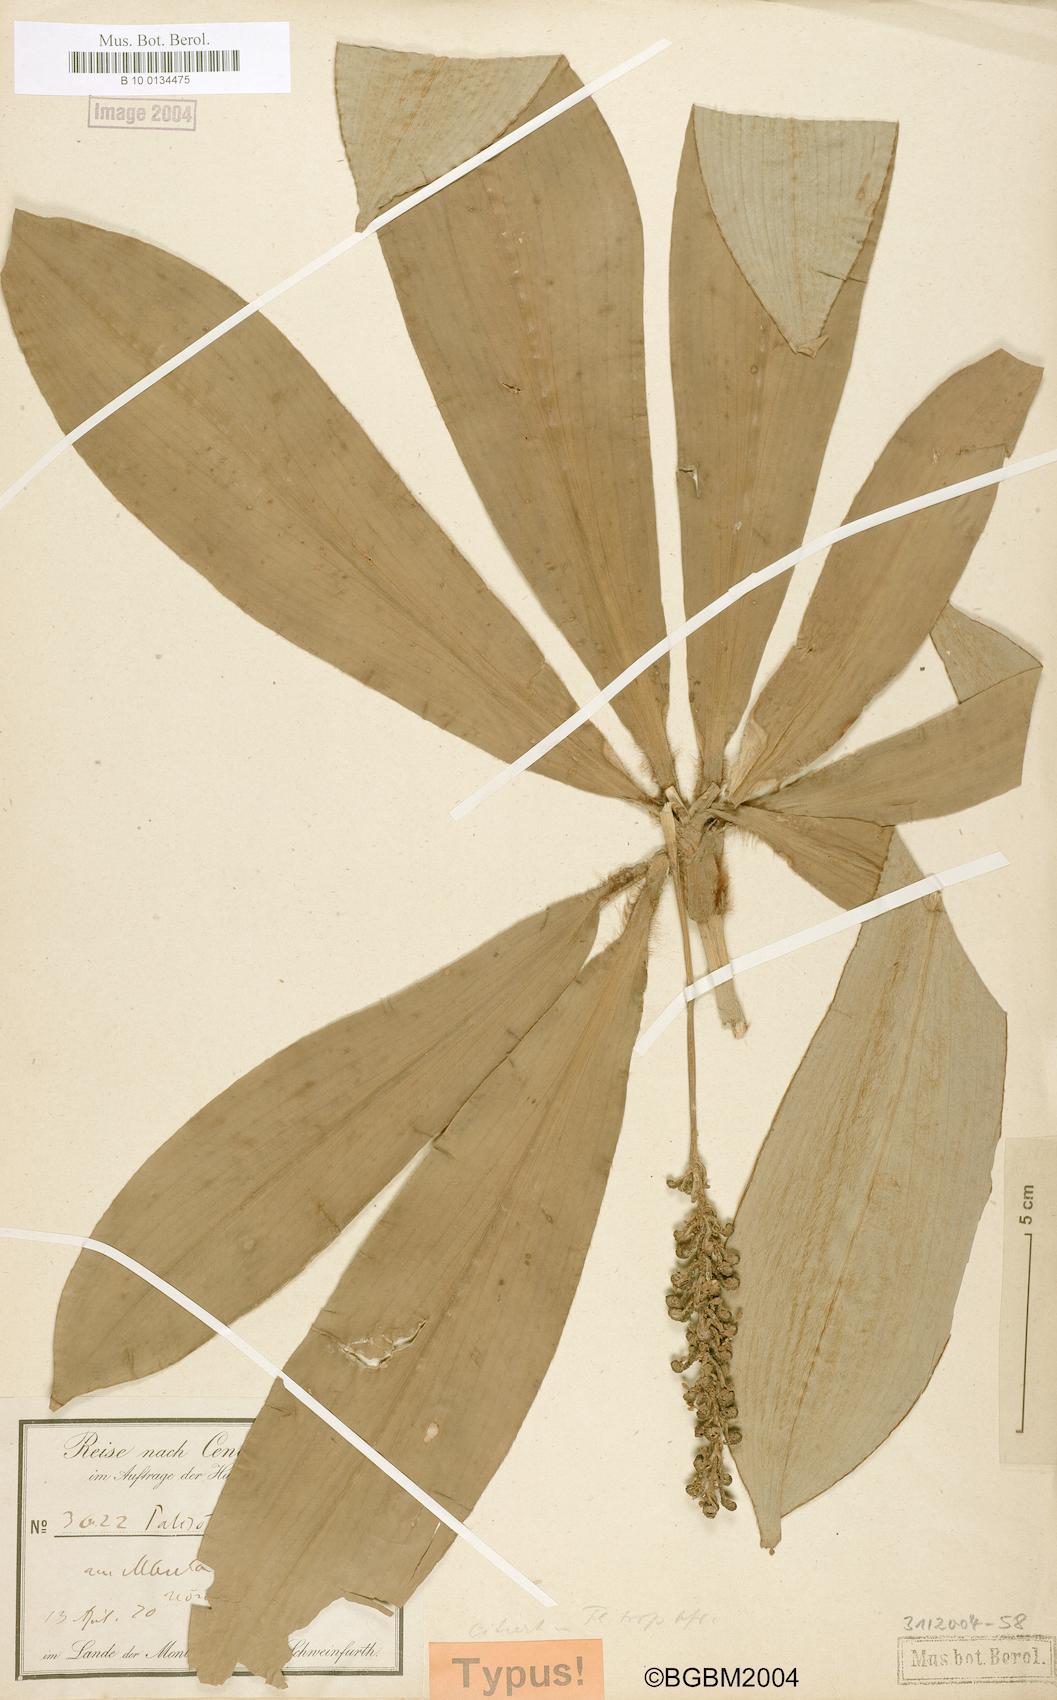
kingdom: Plantae
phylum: Tracheophyta
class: Liliopsida
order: Commelinales
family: Commelinaceae
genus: Palisota
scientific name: Palisota
